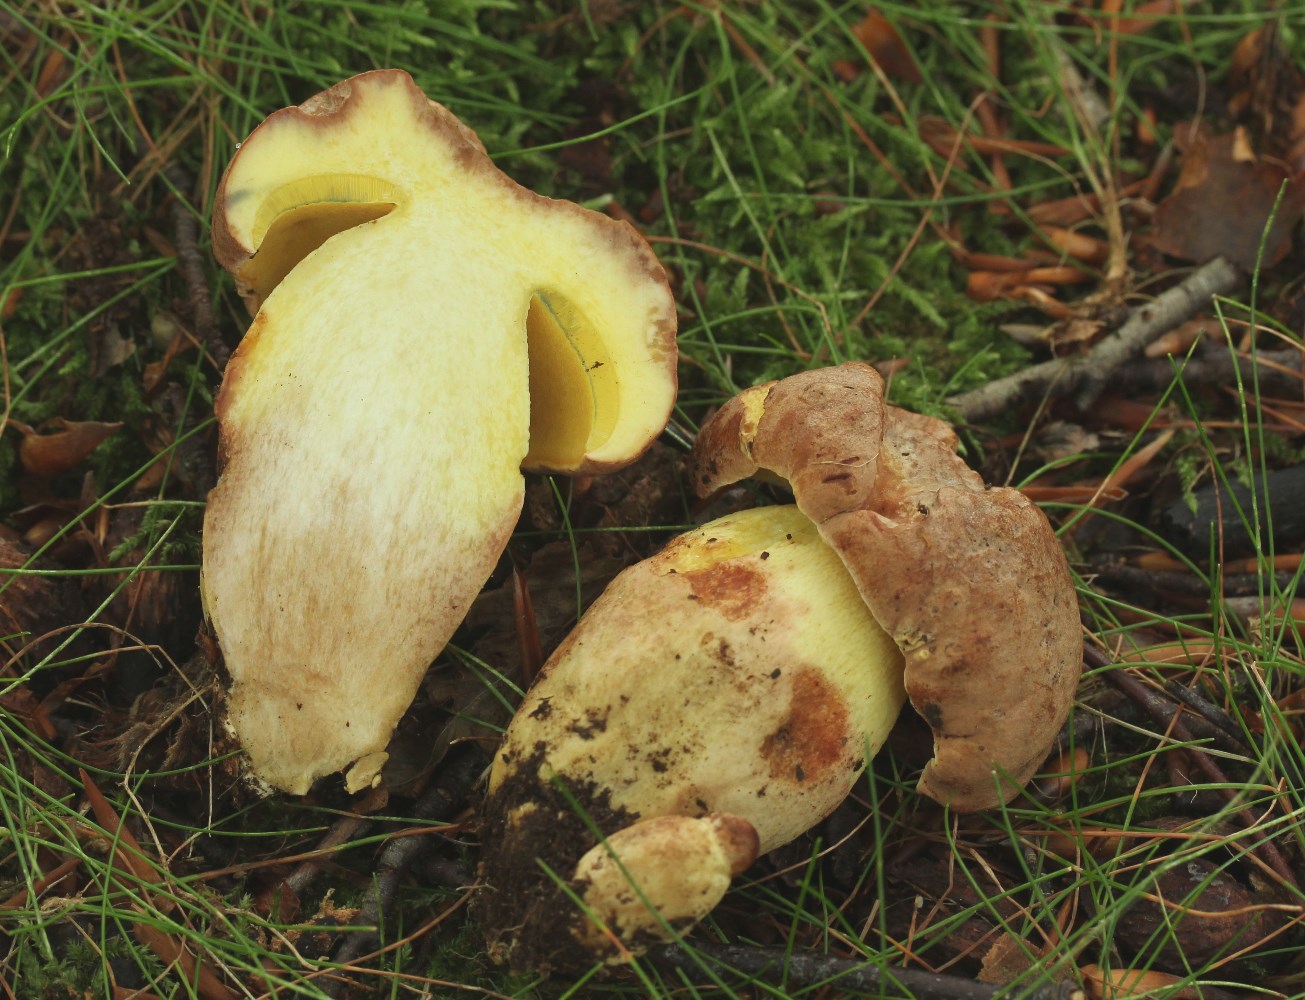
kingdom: Fungi
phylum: Basidiomycota
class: Agaricomycetes
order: Boletales
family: Boletaceae
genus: Butyriboletus
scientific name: Butyriboletus appendiculatus
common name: tenstokket rørhat
